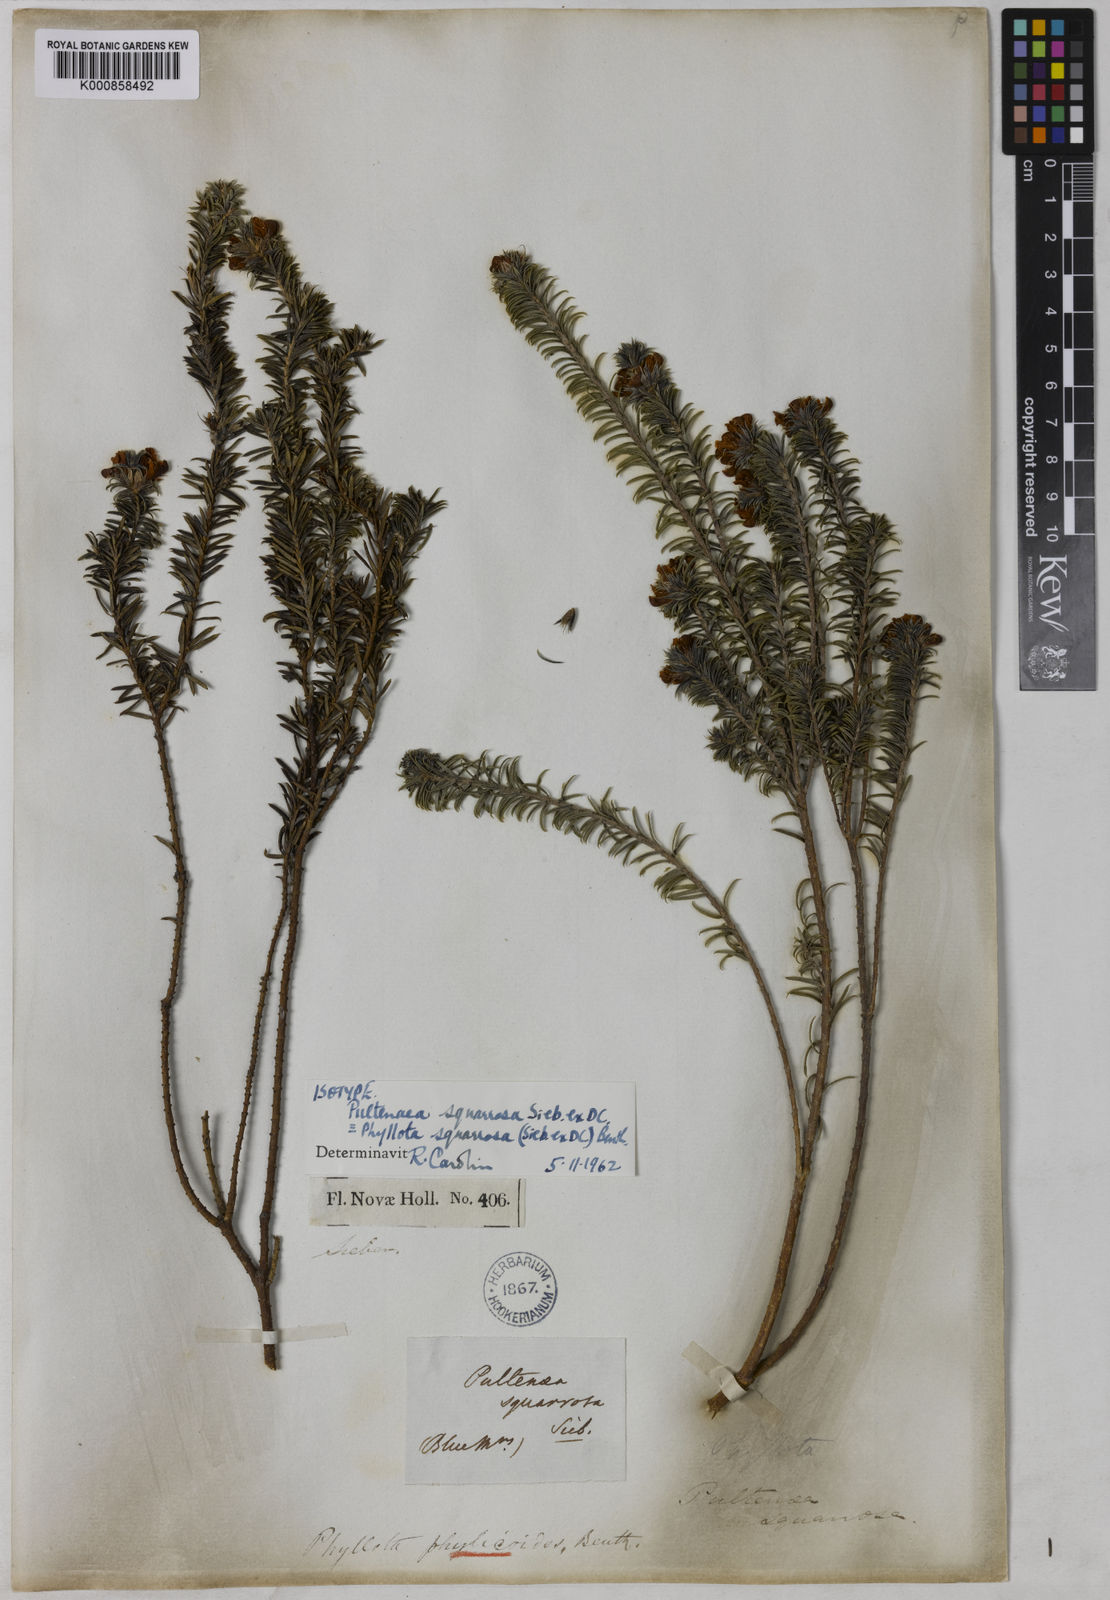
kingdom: Plantae
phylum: Tracheophyta
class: Magnoliopsida
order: Fabales
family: Fabaceae
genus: Phyllota
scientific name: Phyllota squarrosa
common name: Dense phyllota
